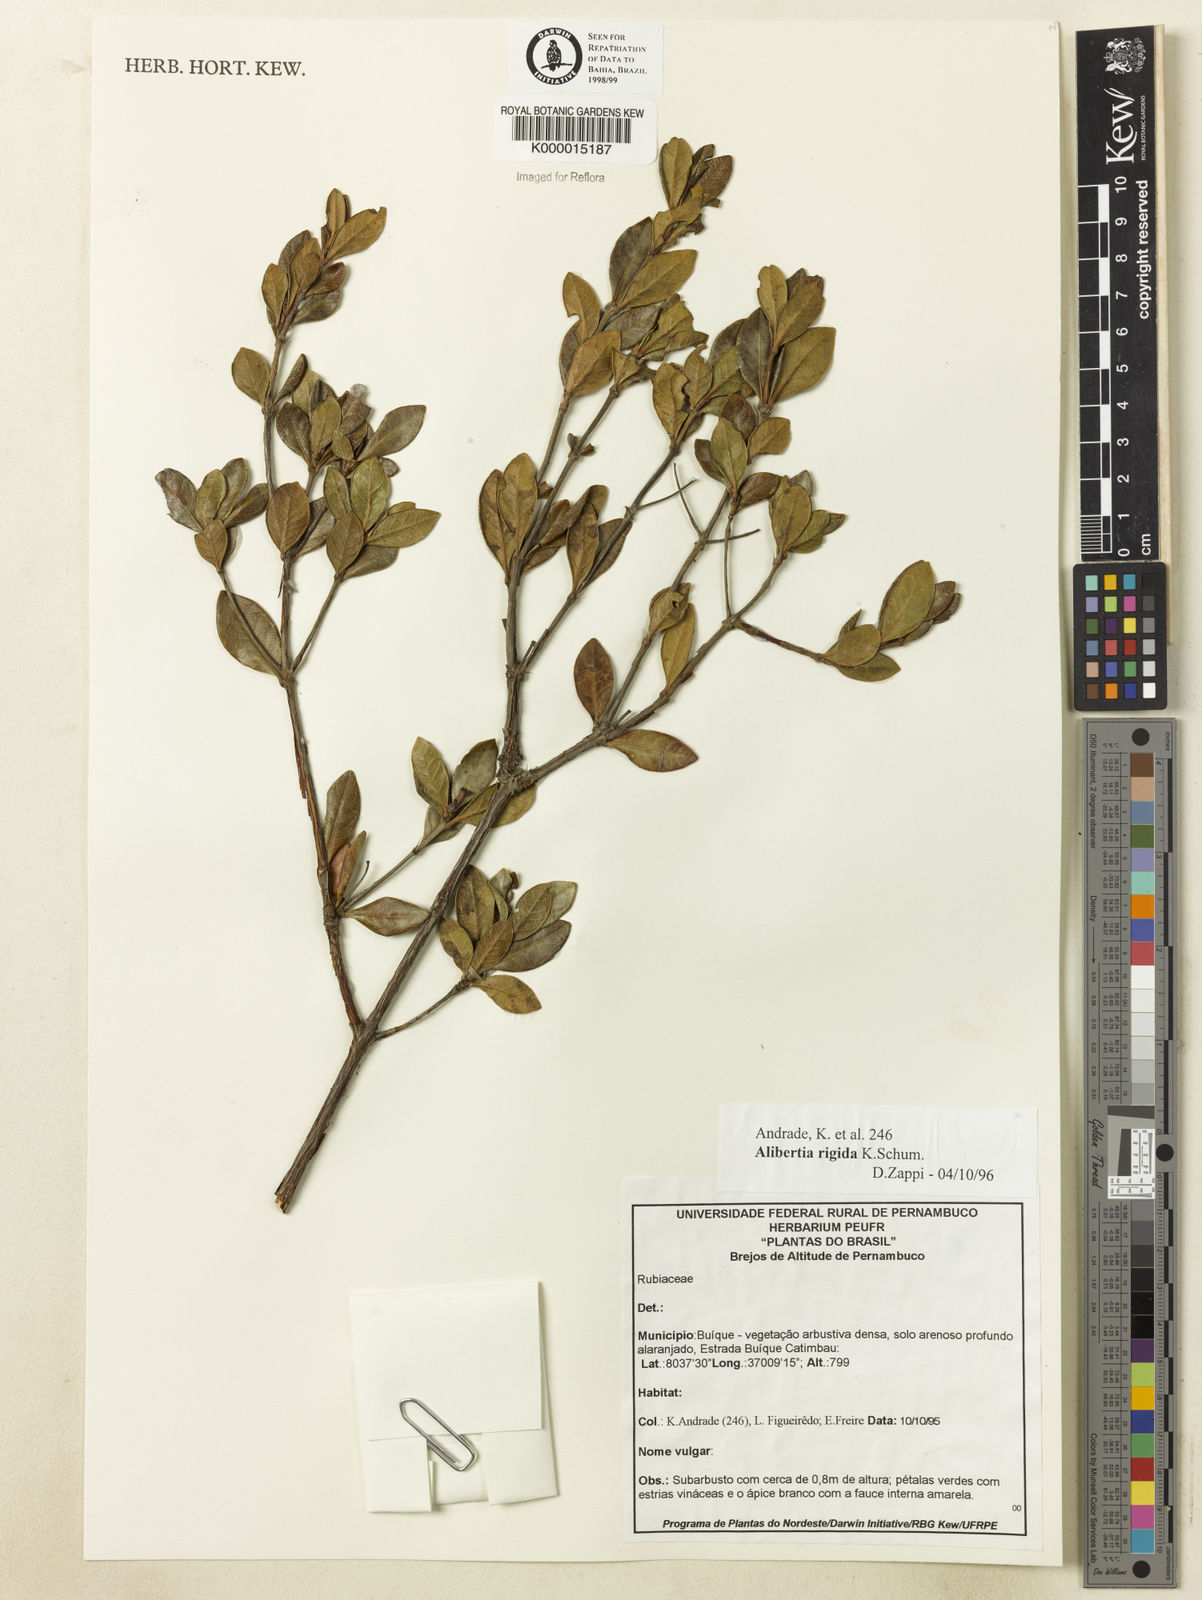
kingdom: Plantae
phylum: Tracheophyta
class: Magnoliopsida
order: Gentianales
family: Rubiaceae
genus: Cordiera
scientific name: Cordiera rigida
